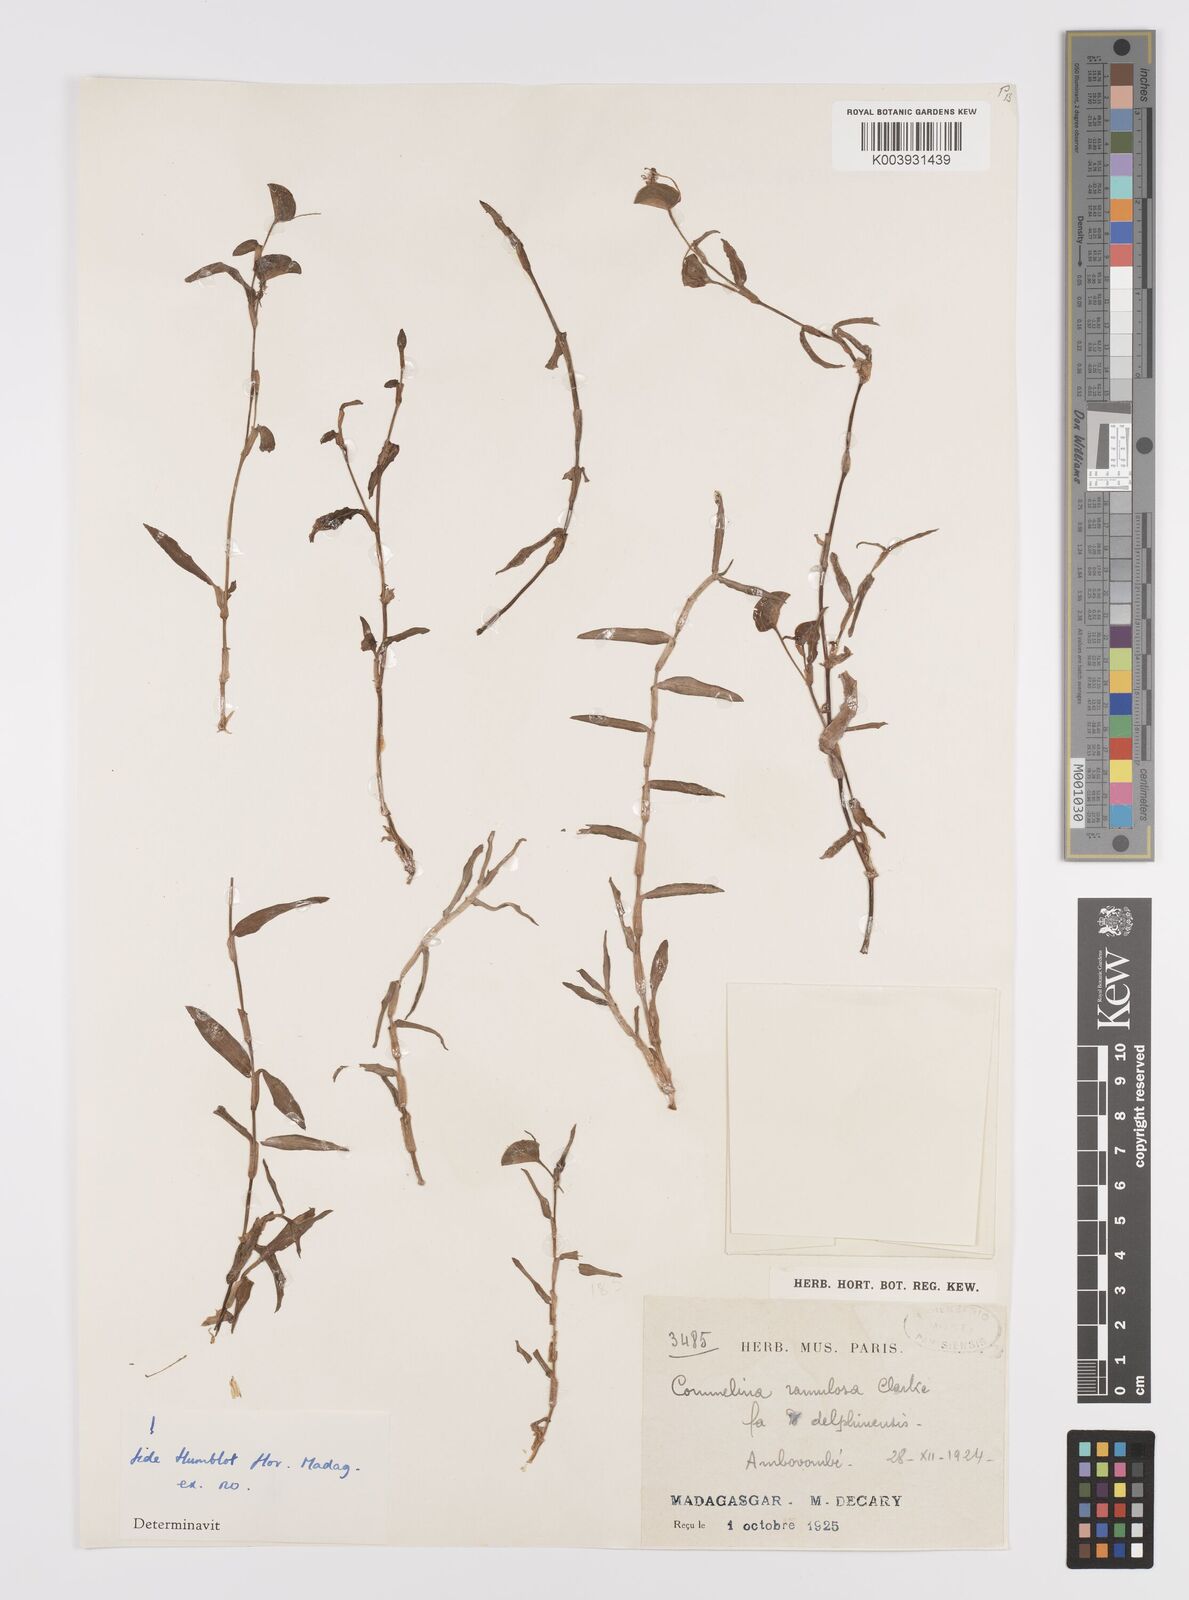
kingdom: Plantae
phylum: Tracheophyta
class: Liliopsida
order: Commelinales
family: Commelinaceae
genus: Commelina
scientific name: Commelina ramulosa
